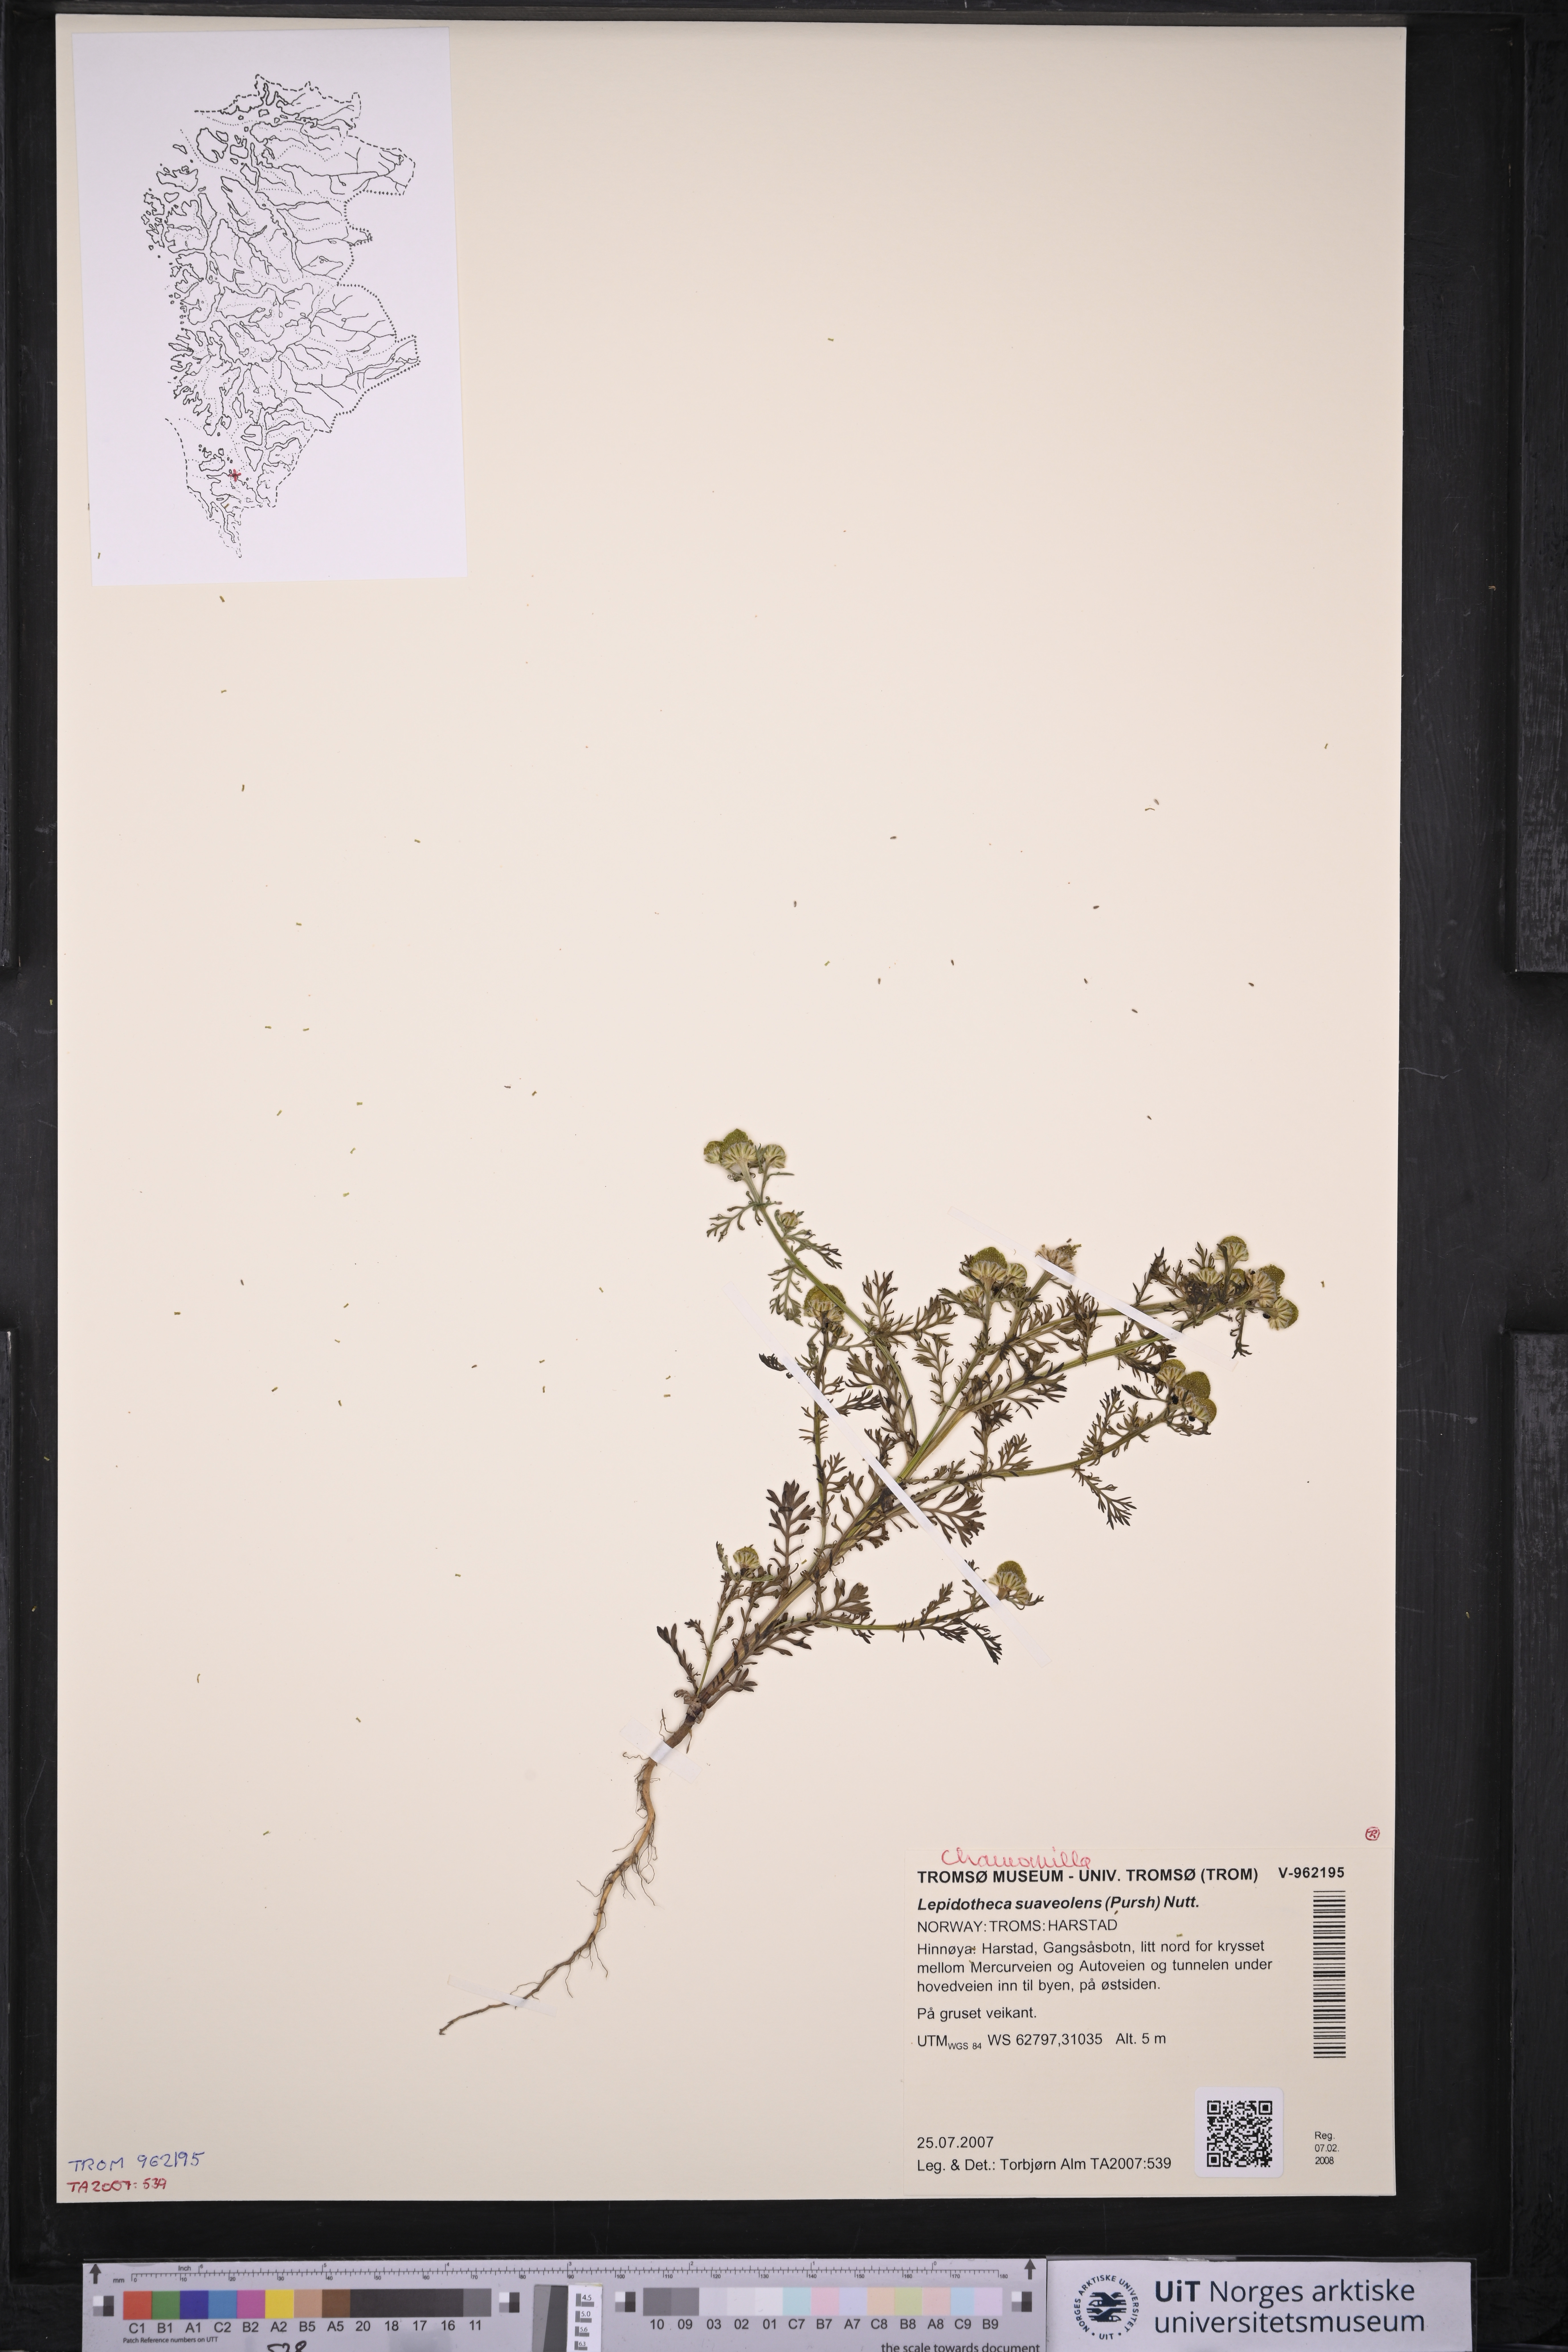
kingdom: Plantae
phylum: Tracheophyta
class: Magnoliopsida
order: Asterales
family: Asteraceae
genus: Matricaria
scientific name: Matricaria discoidea
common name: Disc mayweed
